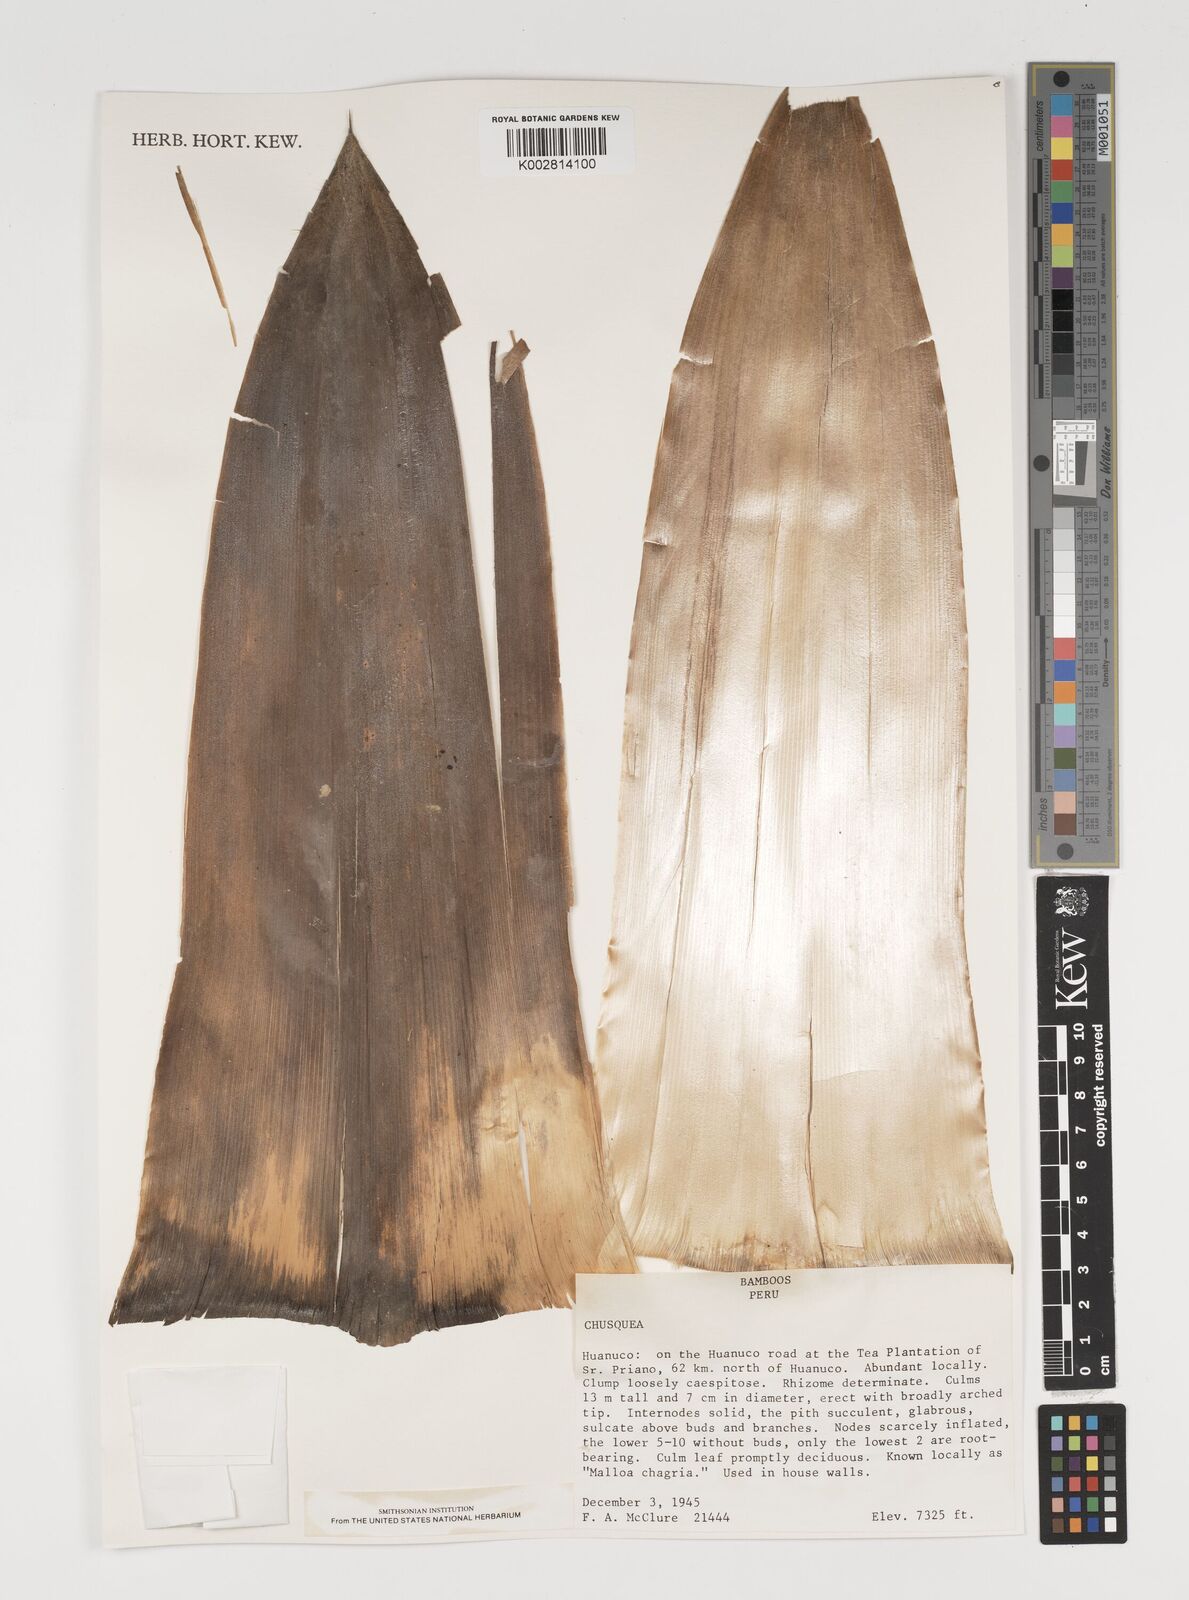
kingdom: Plantae
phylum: Tracheophyta
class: Liliopsida
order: Poales
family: Poaceae
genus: Chusquea
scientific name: Chusquea
